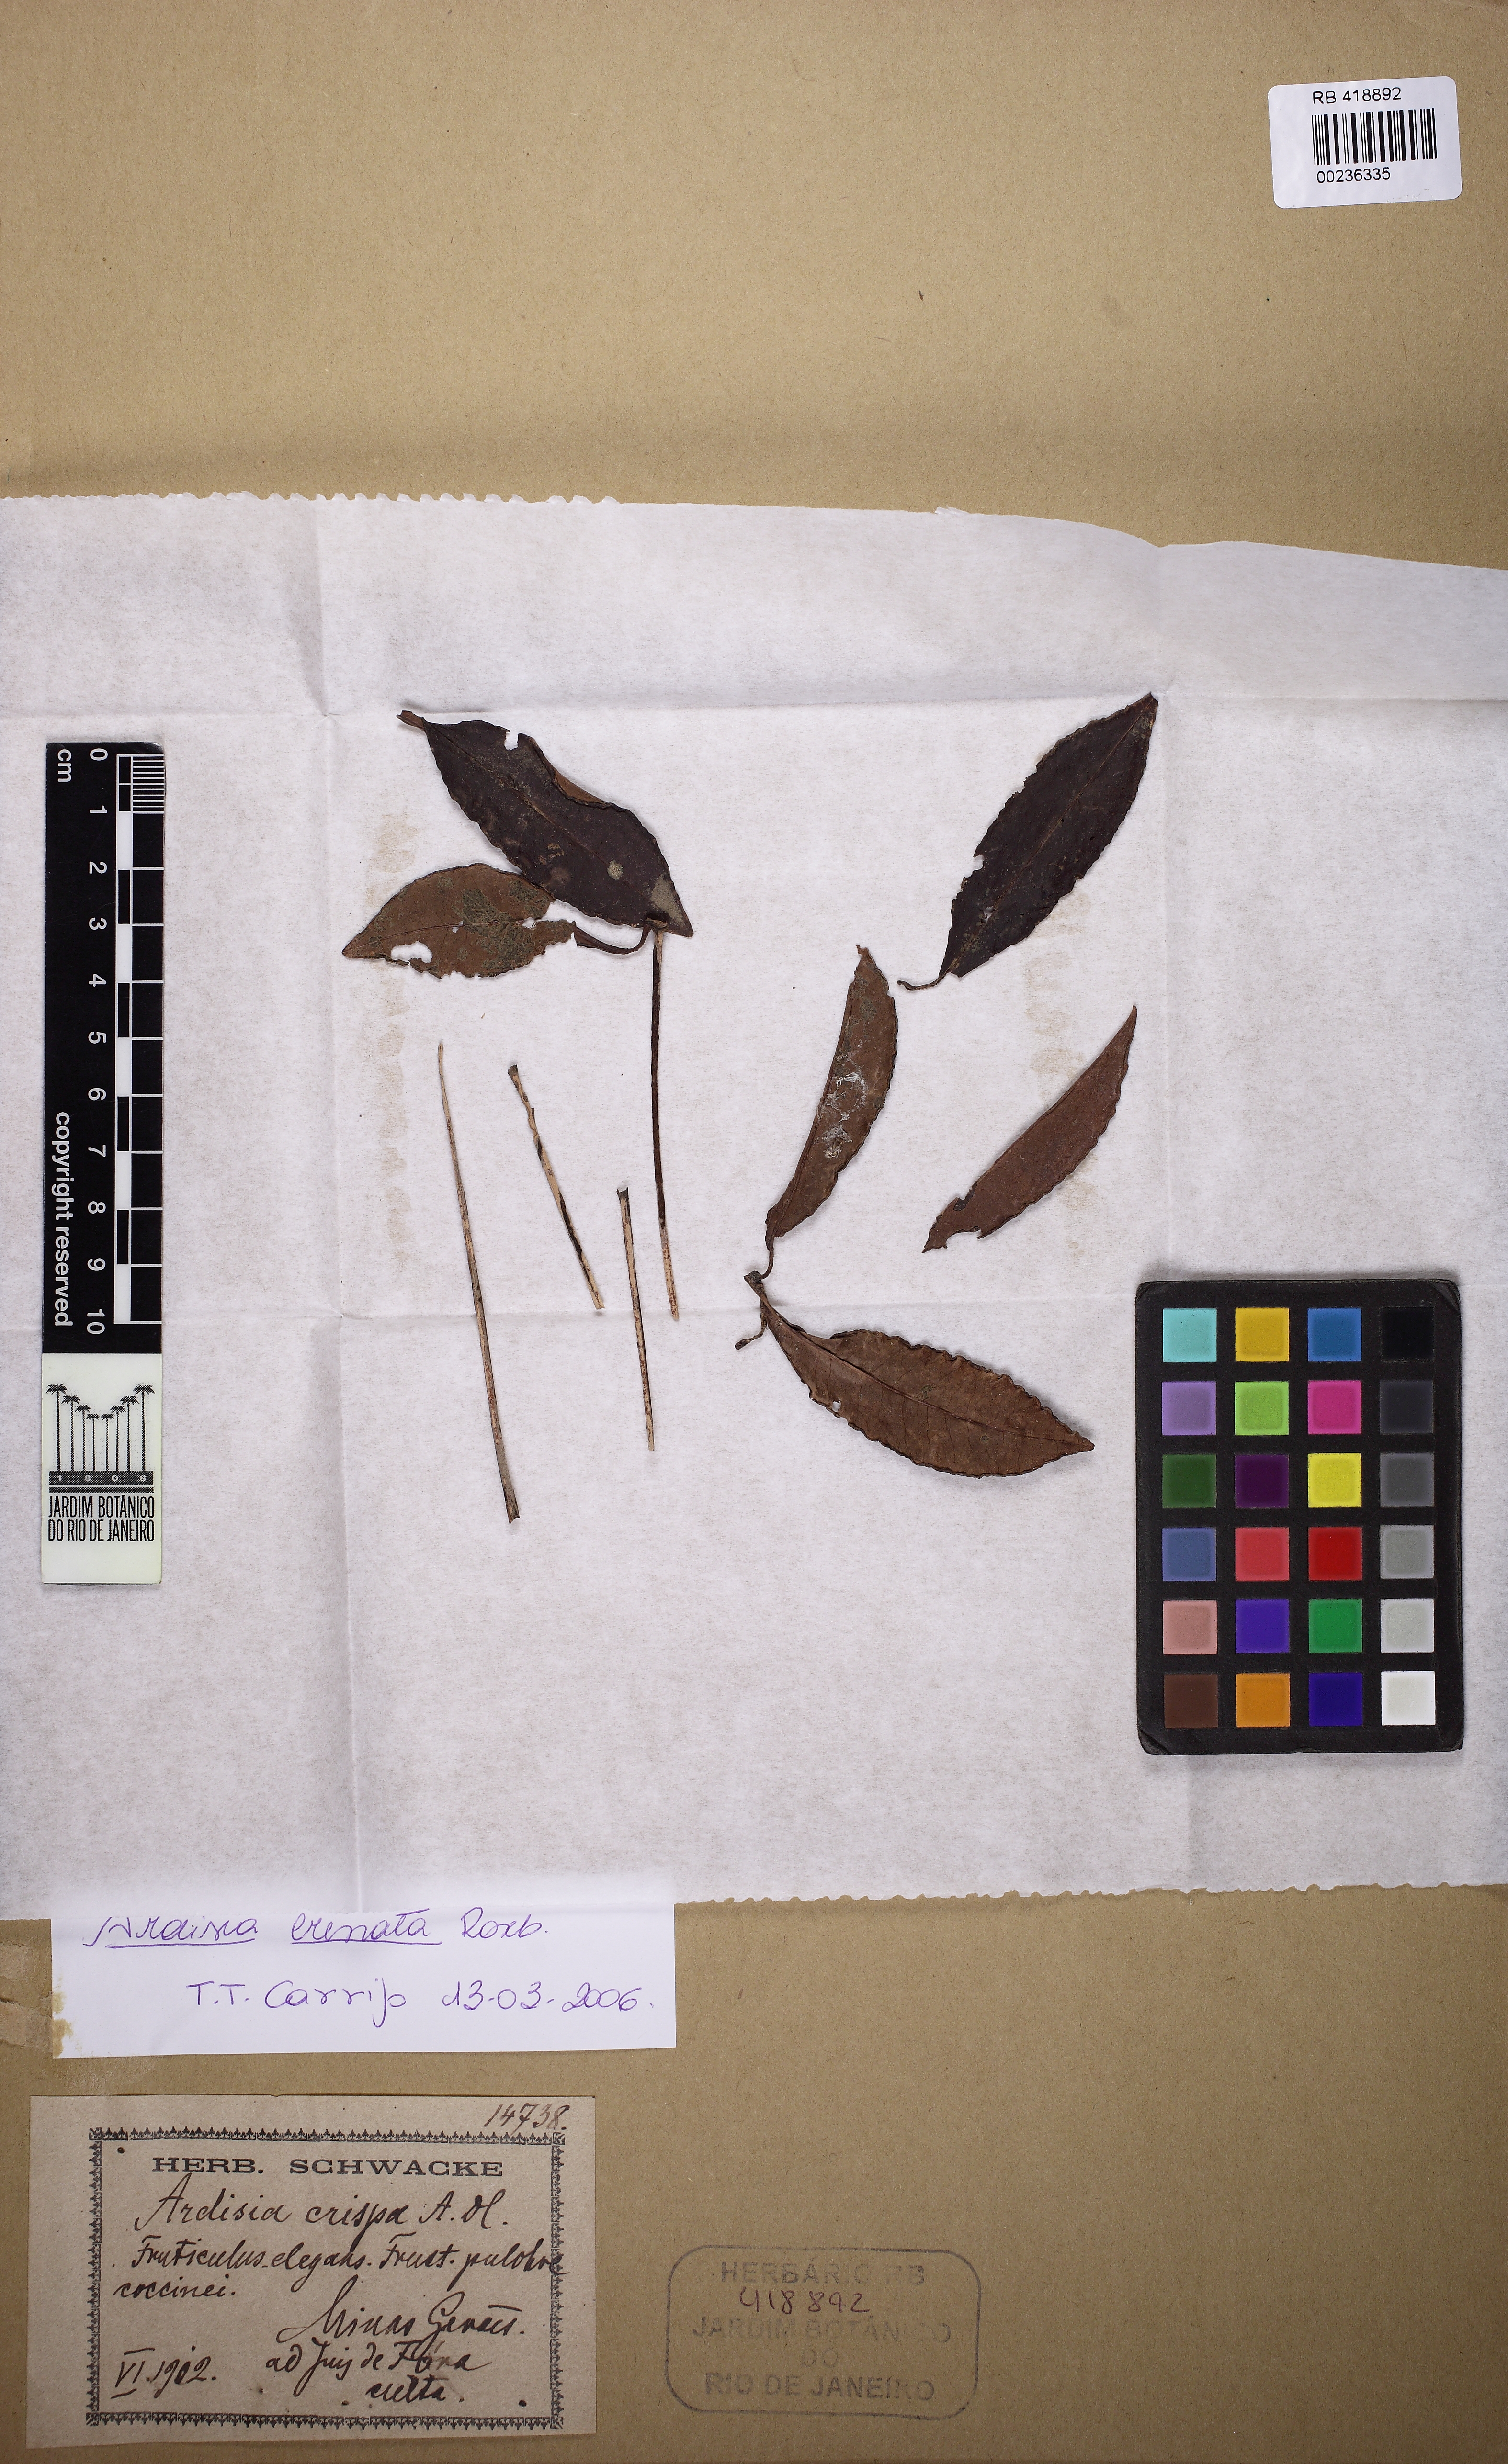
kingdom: Plantae
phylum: Tracheophyta
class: Magnoliopsida
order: Ericales
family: Primulaceae
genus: Ardisia
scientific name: Ardisia
